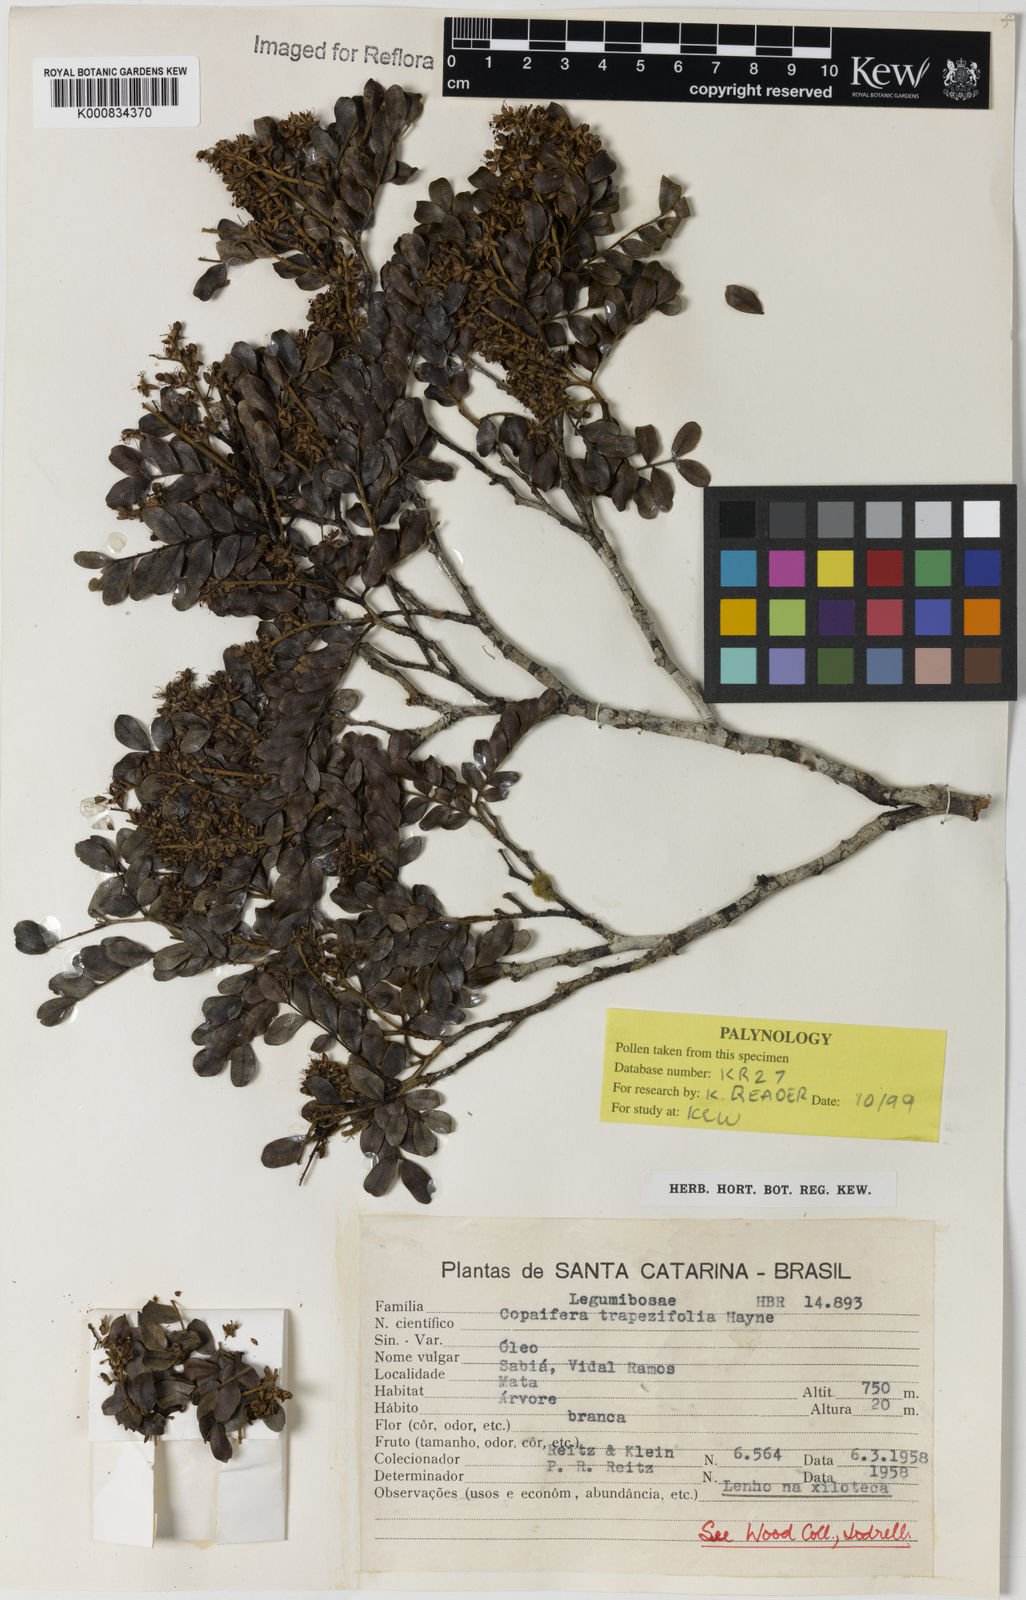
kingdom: Plantae
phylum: Tracheophyta
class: Magnoliopsida
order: Fabales
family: Fabaceae
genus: Copaifera
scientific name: Copaifera trapezifolia
